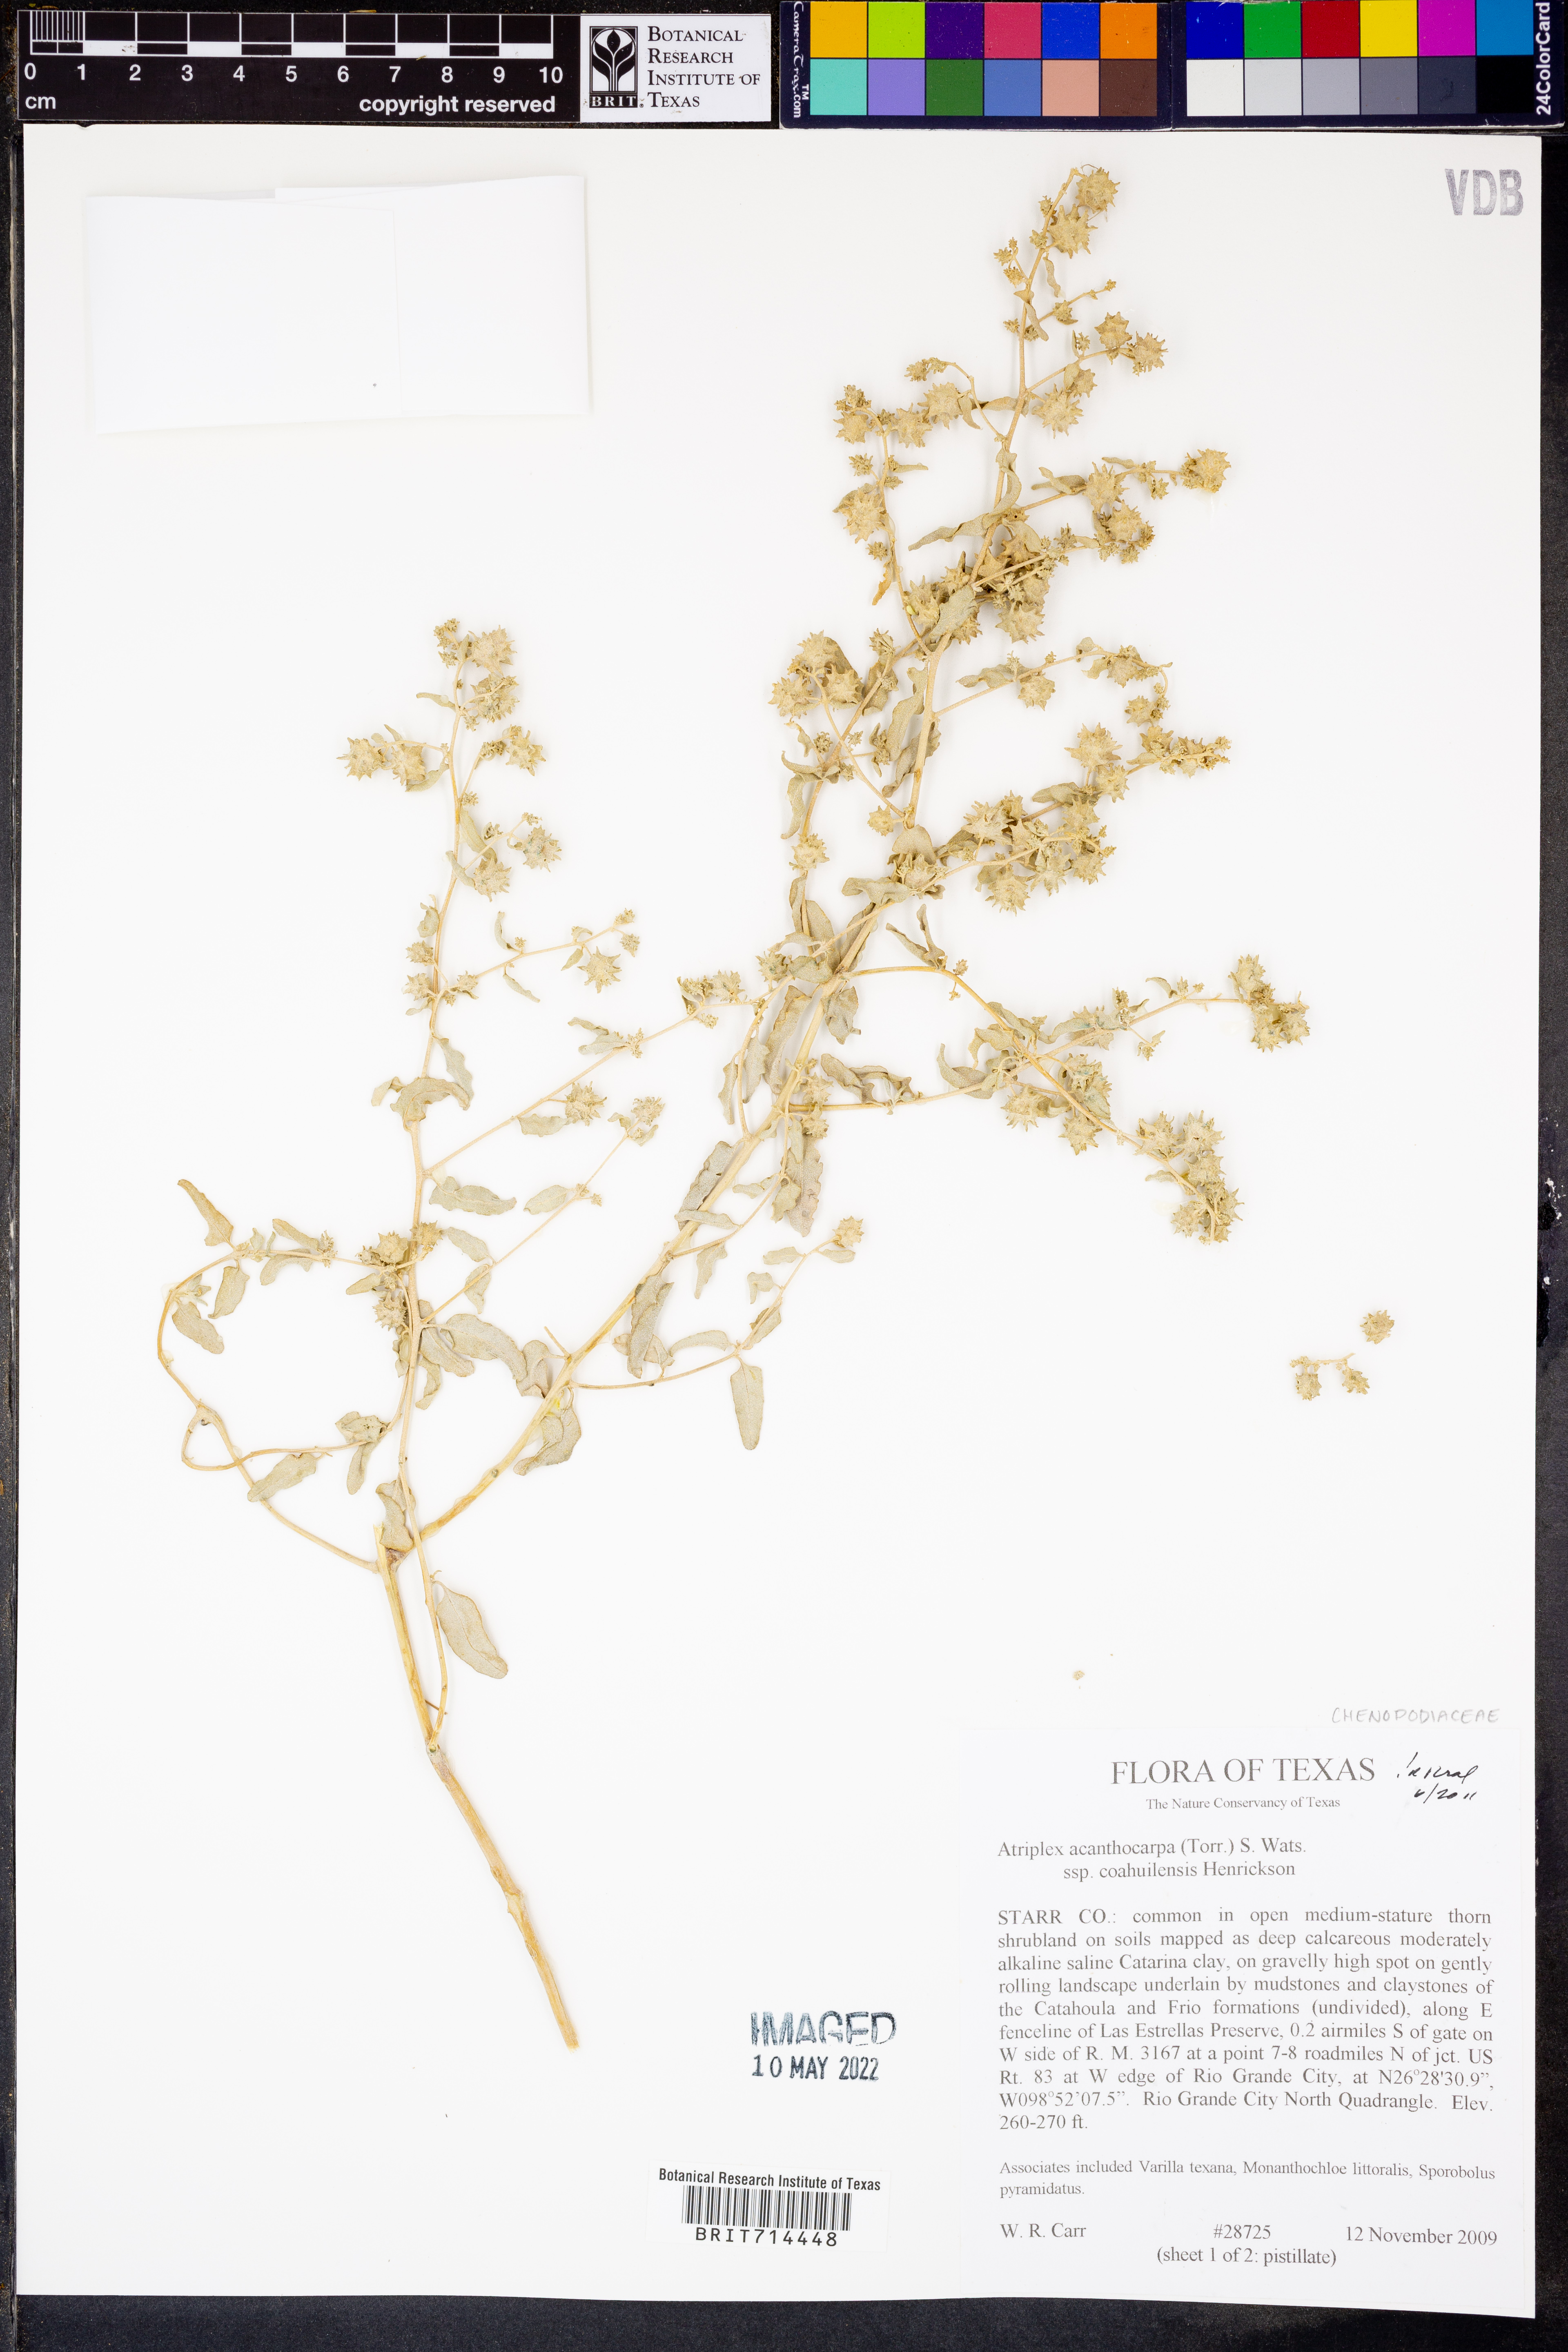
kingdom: Plantae
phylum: Tracheophyta
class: Magnoliopsida
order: Caryophyllales
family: Amaranthaceae
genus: Atriplex
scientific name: Atriplex acanthocarpa
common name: Burscale
